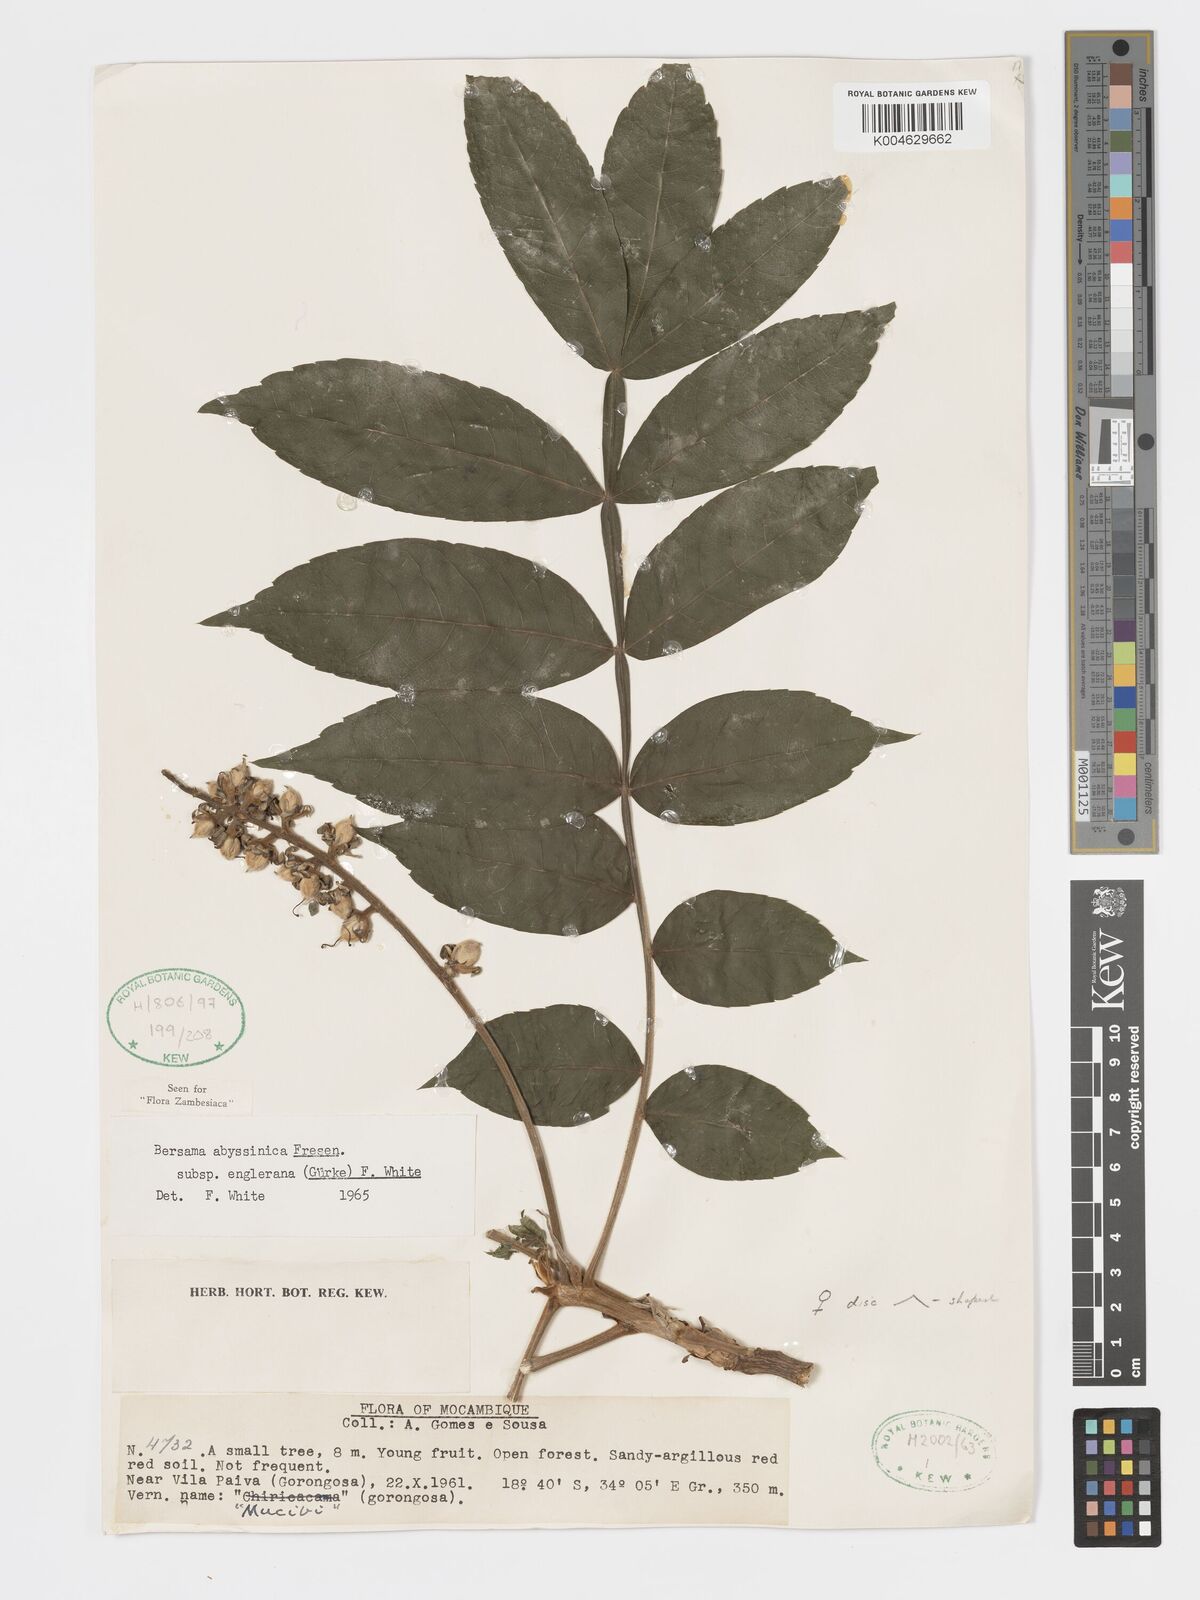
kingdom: Plantae
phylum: Tracheophyta
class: Magnoliopsida
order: Geraniales
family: Melianthaceae
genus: Bersama
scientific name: Bersama abyssinica
